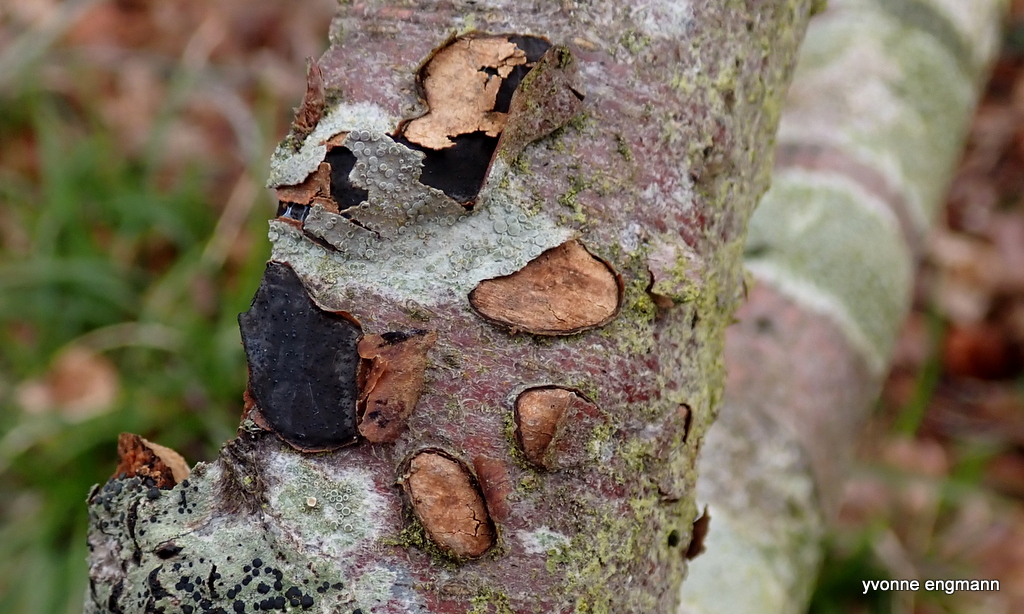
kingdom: Fungi
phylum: Ascomycota
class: Sordariomycetes
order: Xylariales
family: Graphostromataceae
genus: Biscogniauxia
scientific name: Biscogniauxia nummularia
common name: bøge-kulskive
